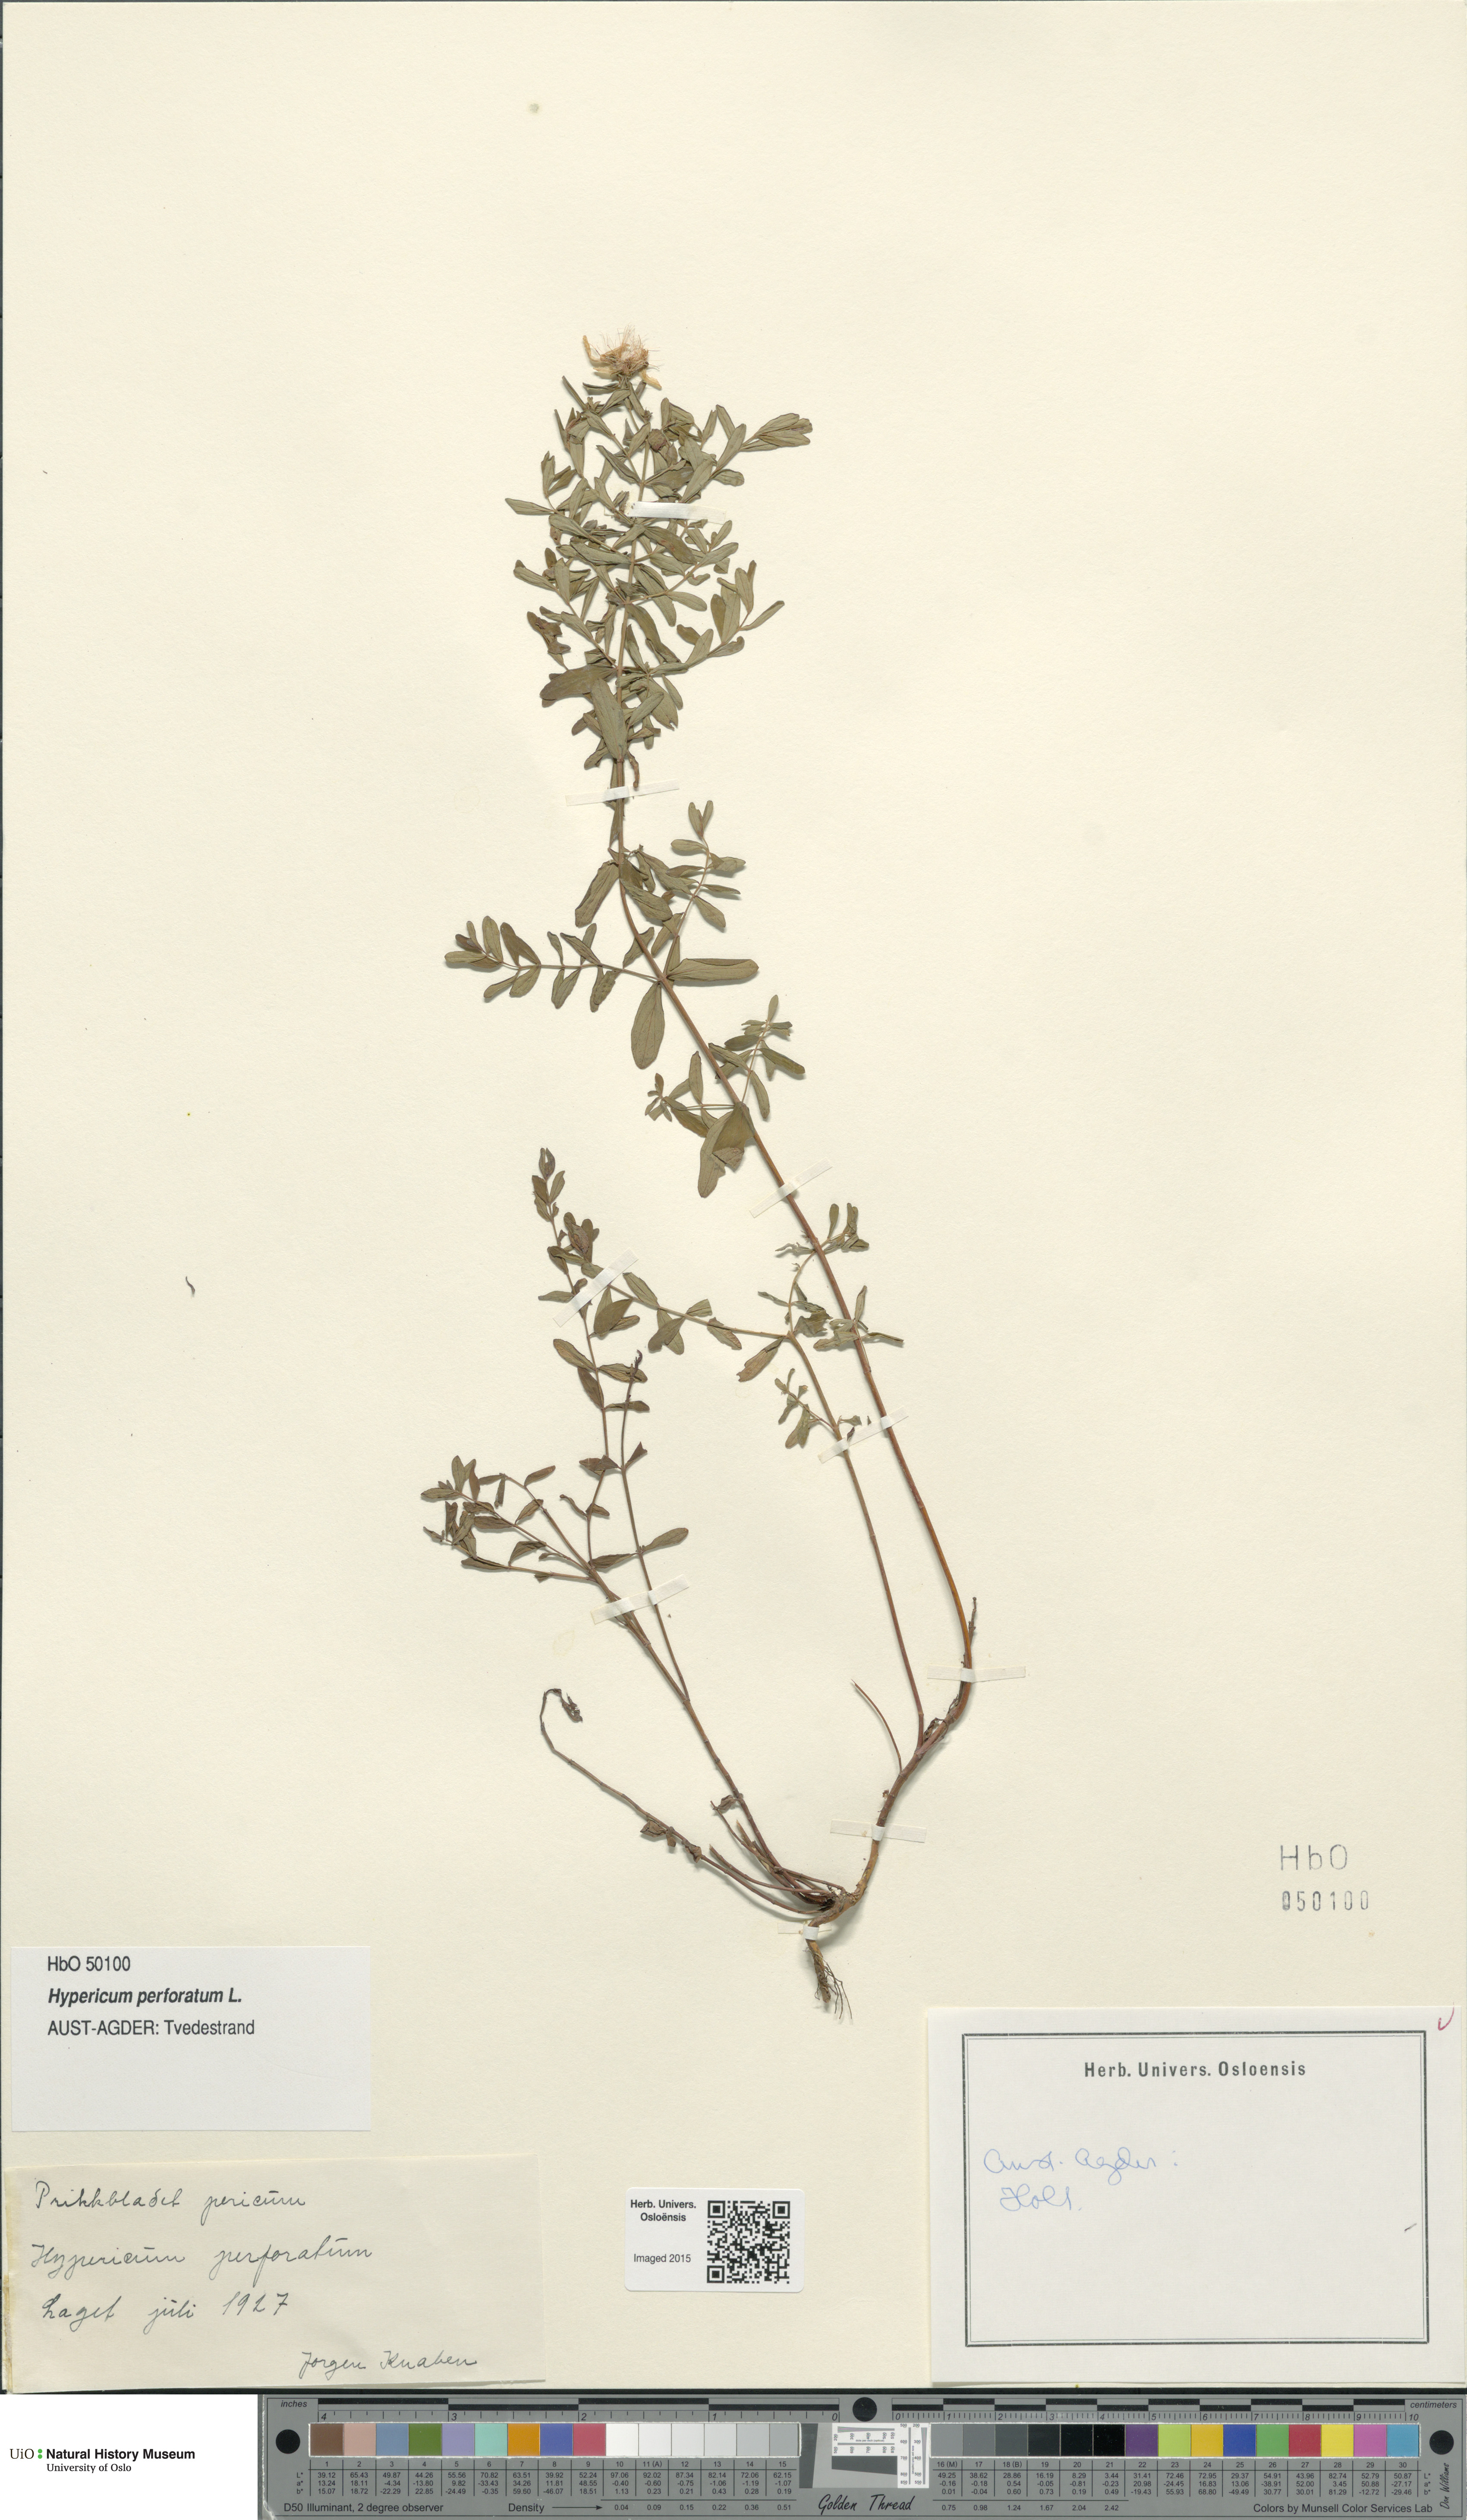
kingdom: Plantae
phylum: Tracheophyta
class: Magnoliopsida
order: Malpighiales
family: Hypericaceae
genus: Hypericum
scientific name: Hypericum perforatum
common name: Common st. johnswort
